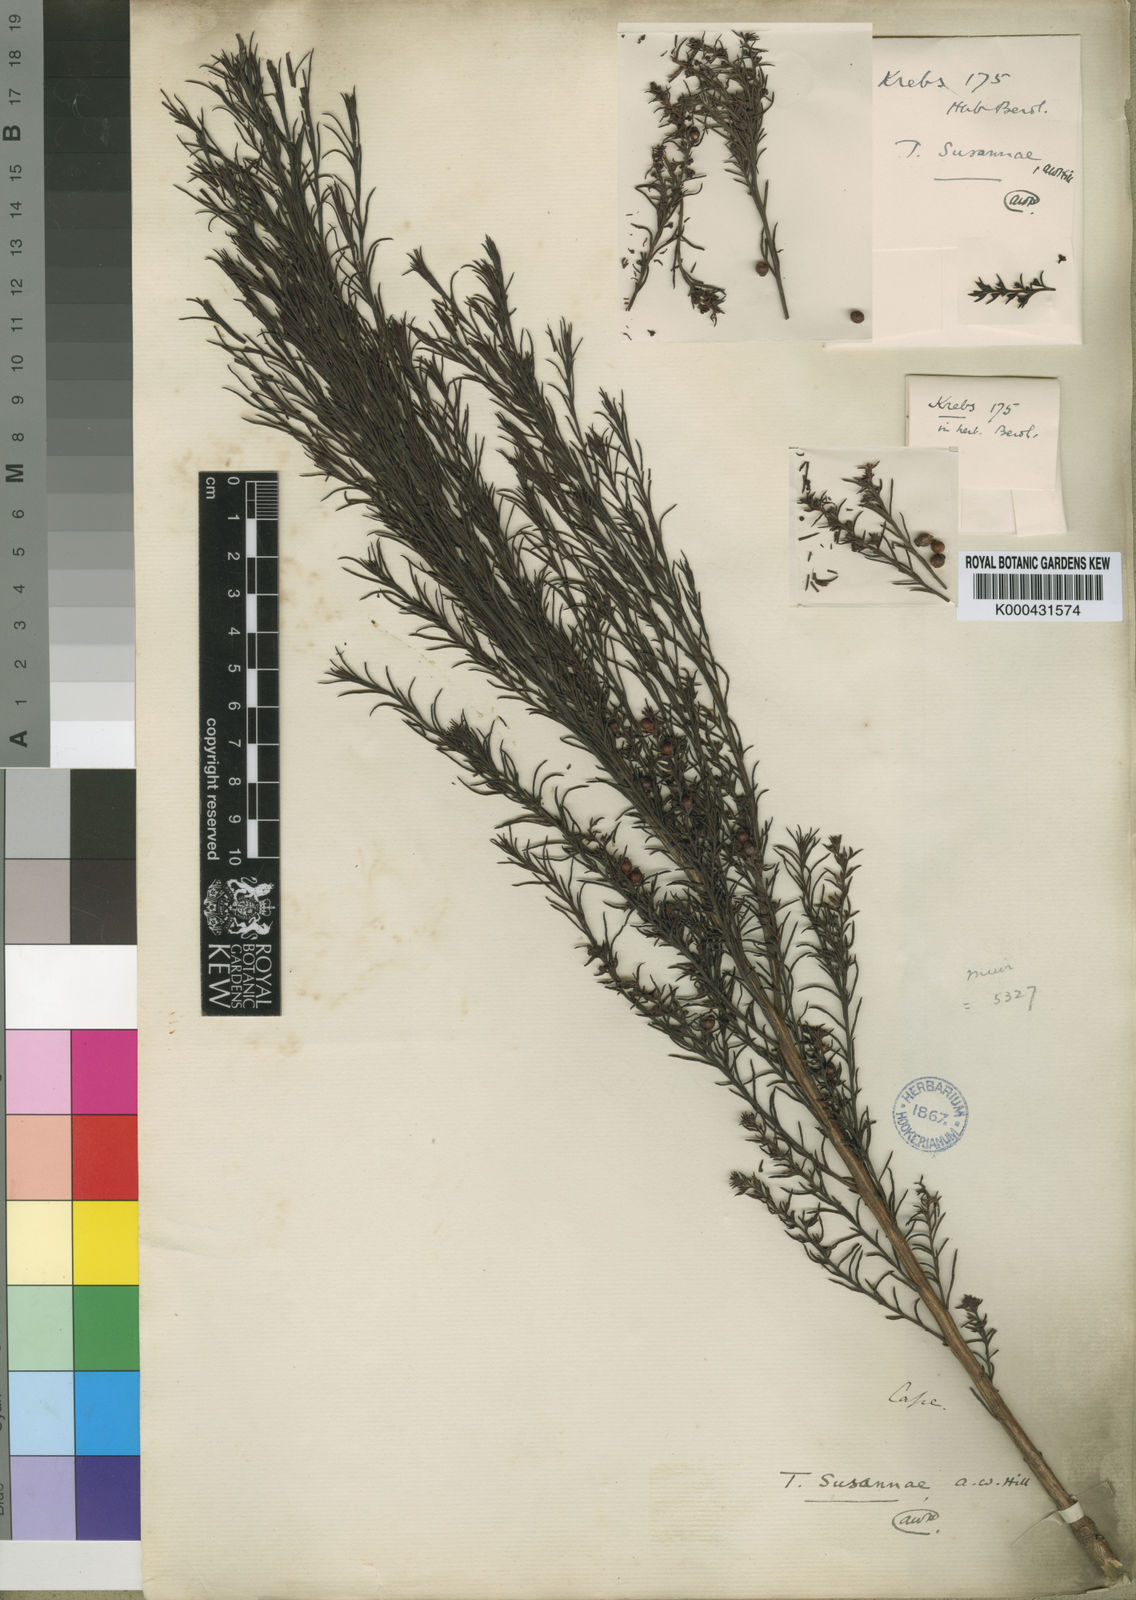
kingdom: Plantae
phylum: Tracheophyta
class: Magnoliopsida
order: Santalales
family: Thesiaceae
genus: Thesium
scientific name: Thesium susannae
